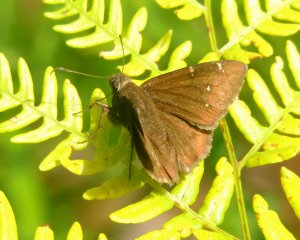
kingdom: Animalia
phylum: Arthropoda
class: Insecta
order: Lepidoptera
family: Hesperiidae
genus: Autochton
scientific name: Autochton
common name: Northern Cloudywing
